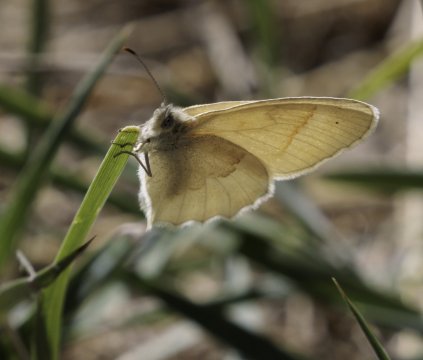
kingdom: Animalia
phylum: Arthropoda
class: Insecta
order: Lepidoptera
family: Nymphalidae
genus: Coenonympha
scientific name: Coenonympha tullia
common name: Large Heath
